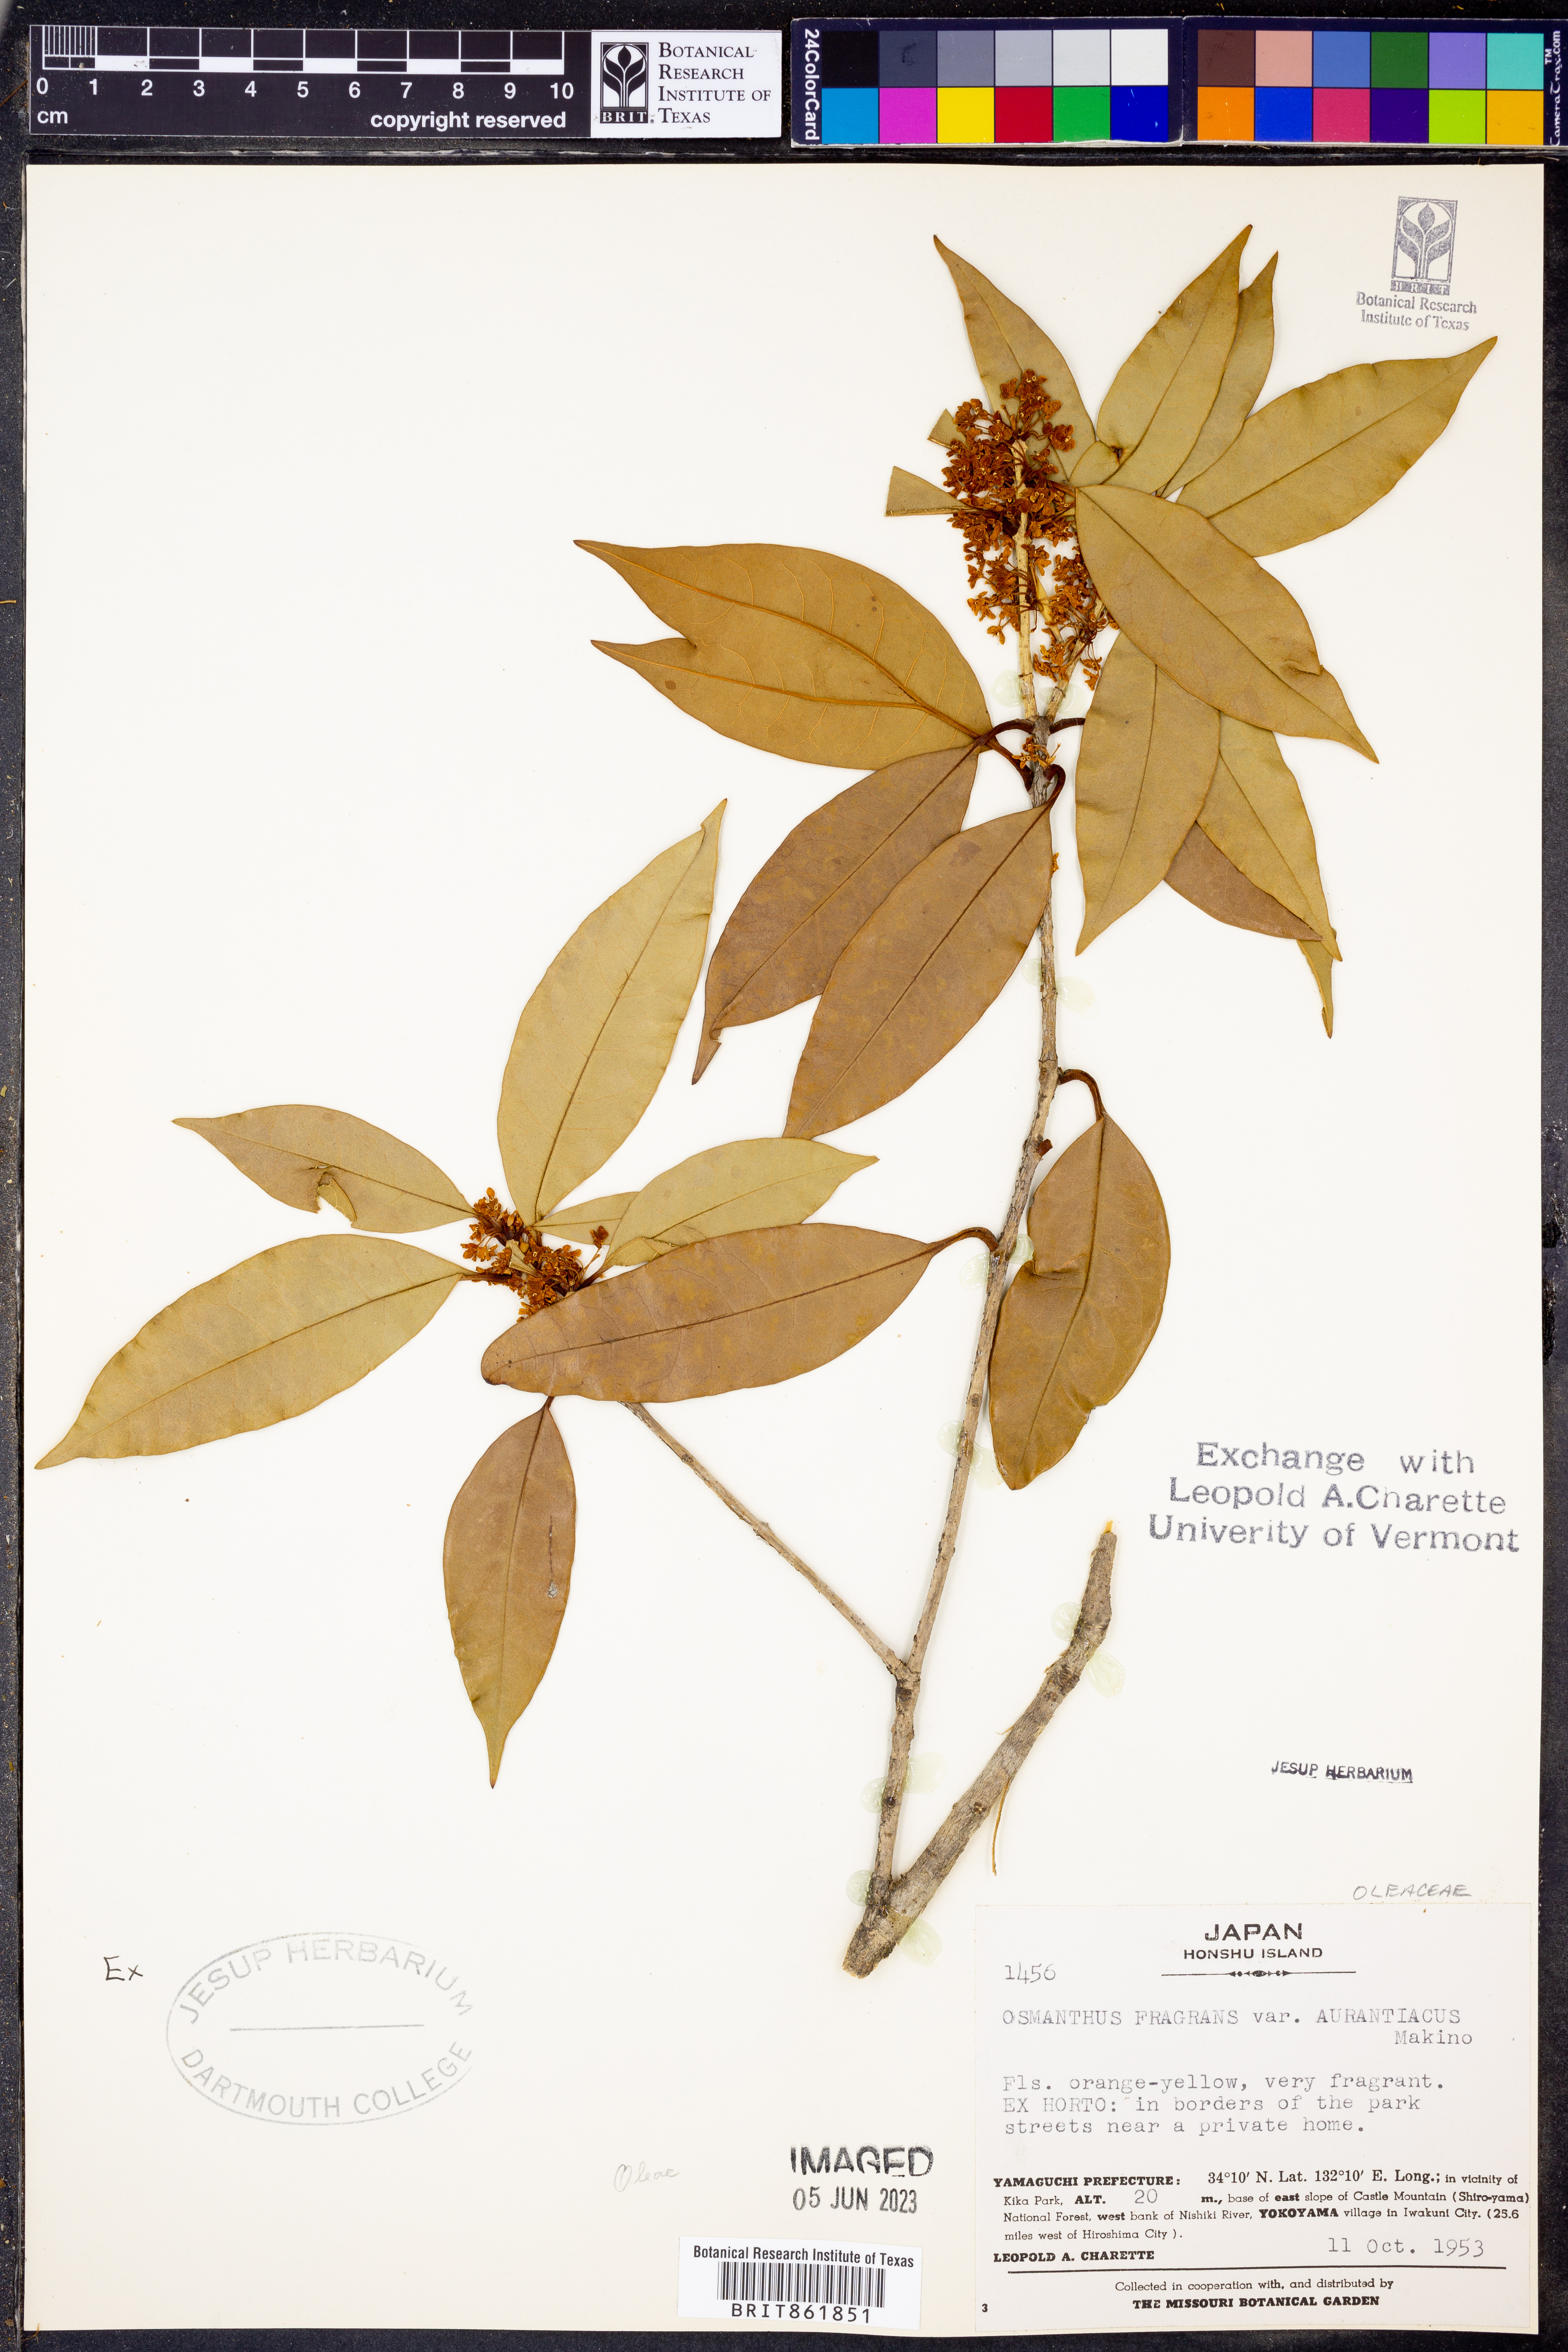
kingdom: Plantae
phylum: Tracheophyta
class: Magnoliopsida
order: Lamiales
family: Oleaceae
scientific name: Oleaceae
